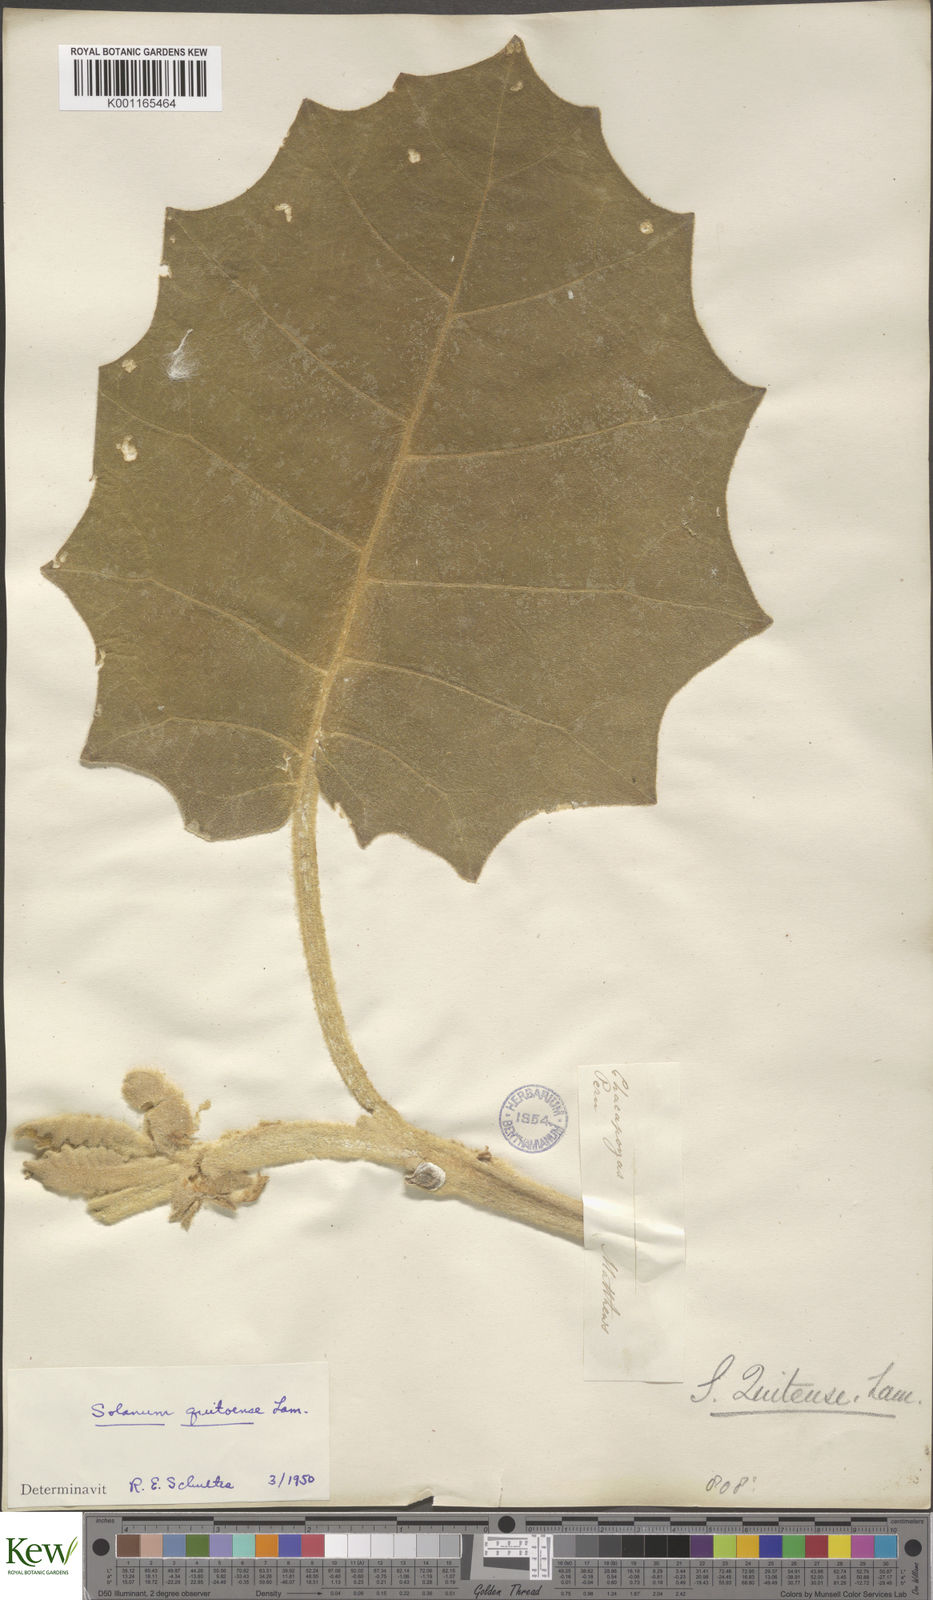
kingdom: Plantae
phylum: Tracheophyta
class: Magnoliopsida
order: Solanales
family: Solanaceae
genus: Solanum
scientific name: Solanum quitoense
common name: Quito-orange
